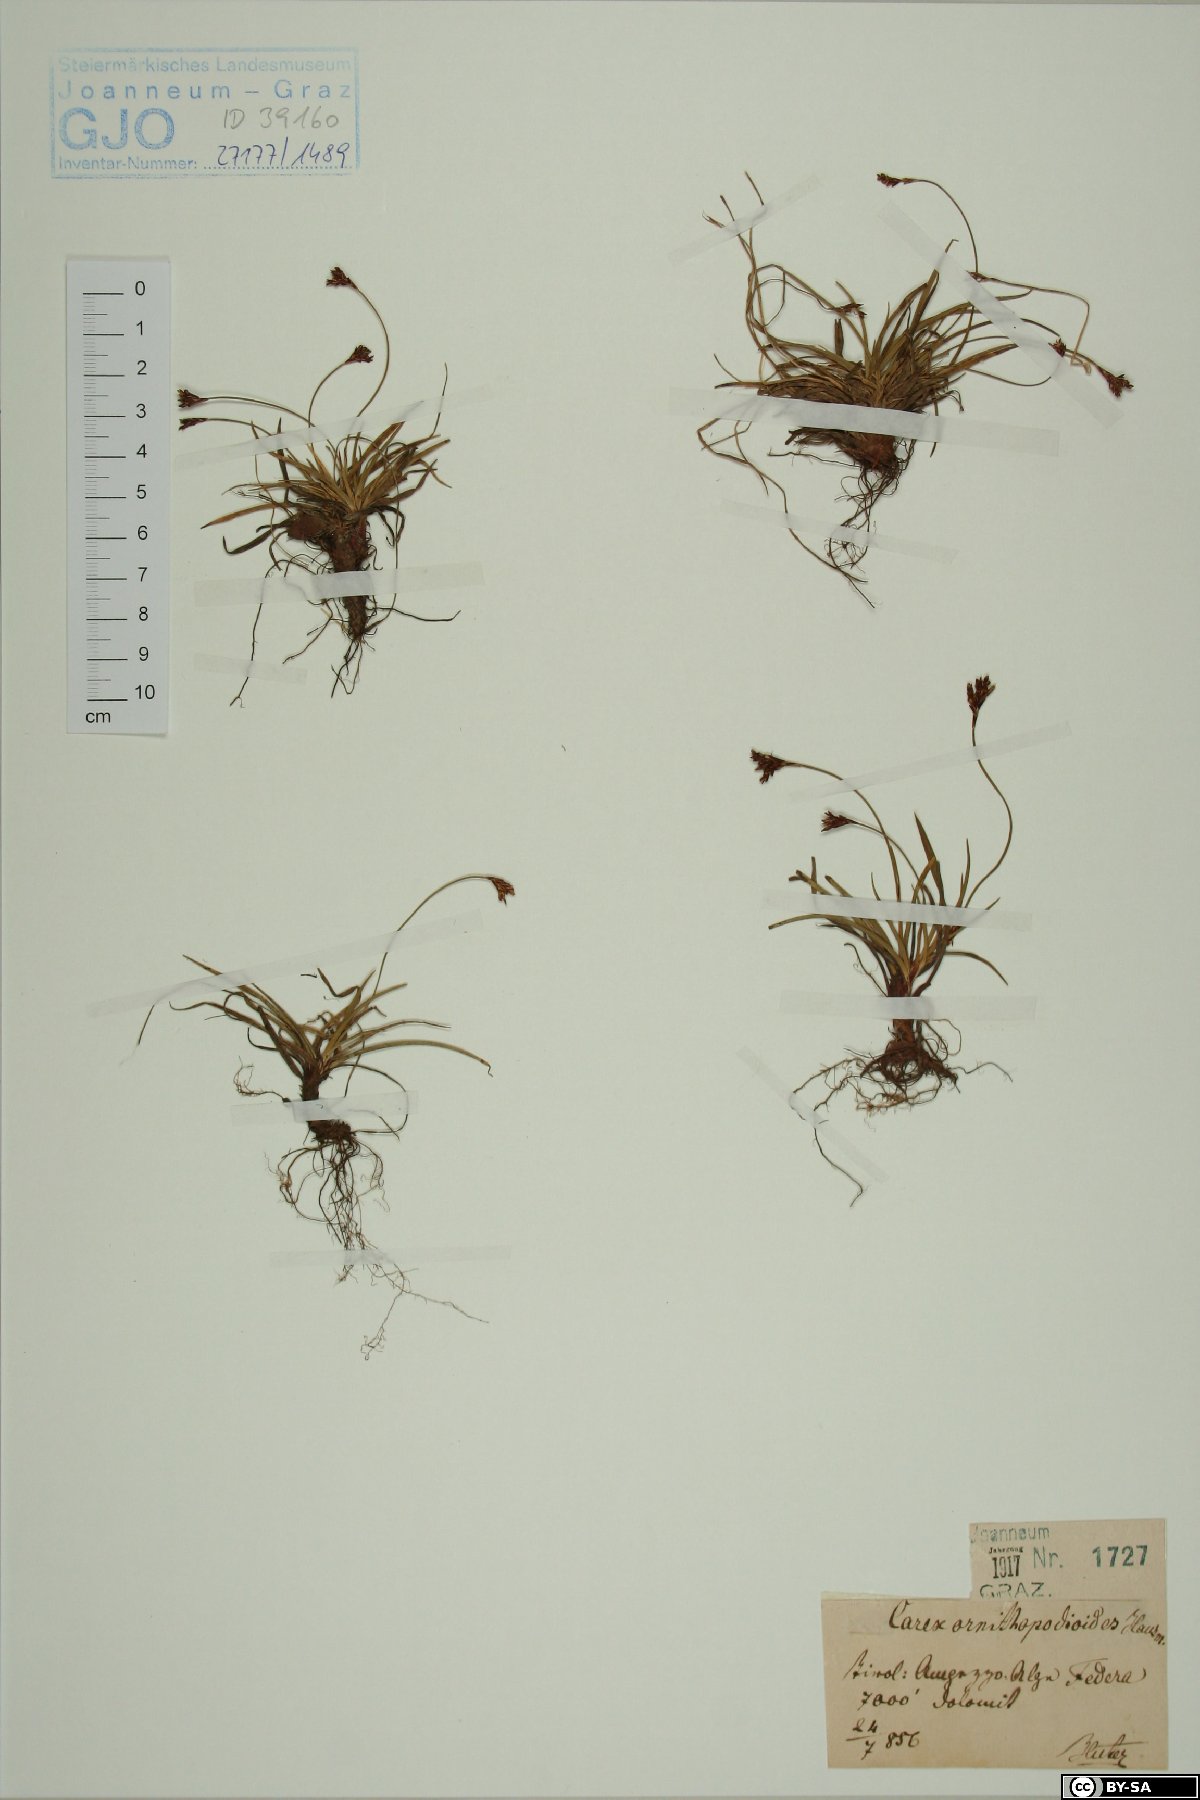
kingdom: Plantae
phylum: Tracheophyta
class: Liliopsida
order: Poales
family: Cyperaceae
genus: Carex
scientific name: Carex ornithopoda
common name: Bird's-foot sedge
